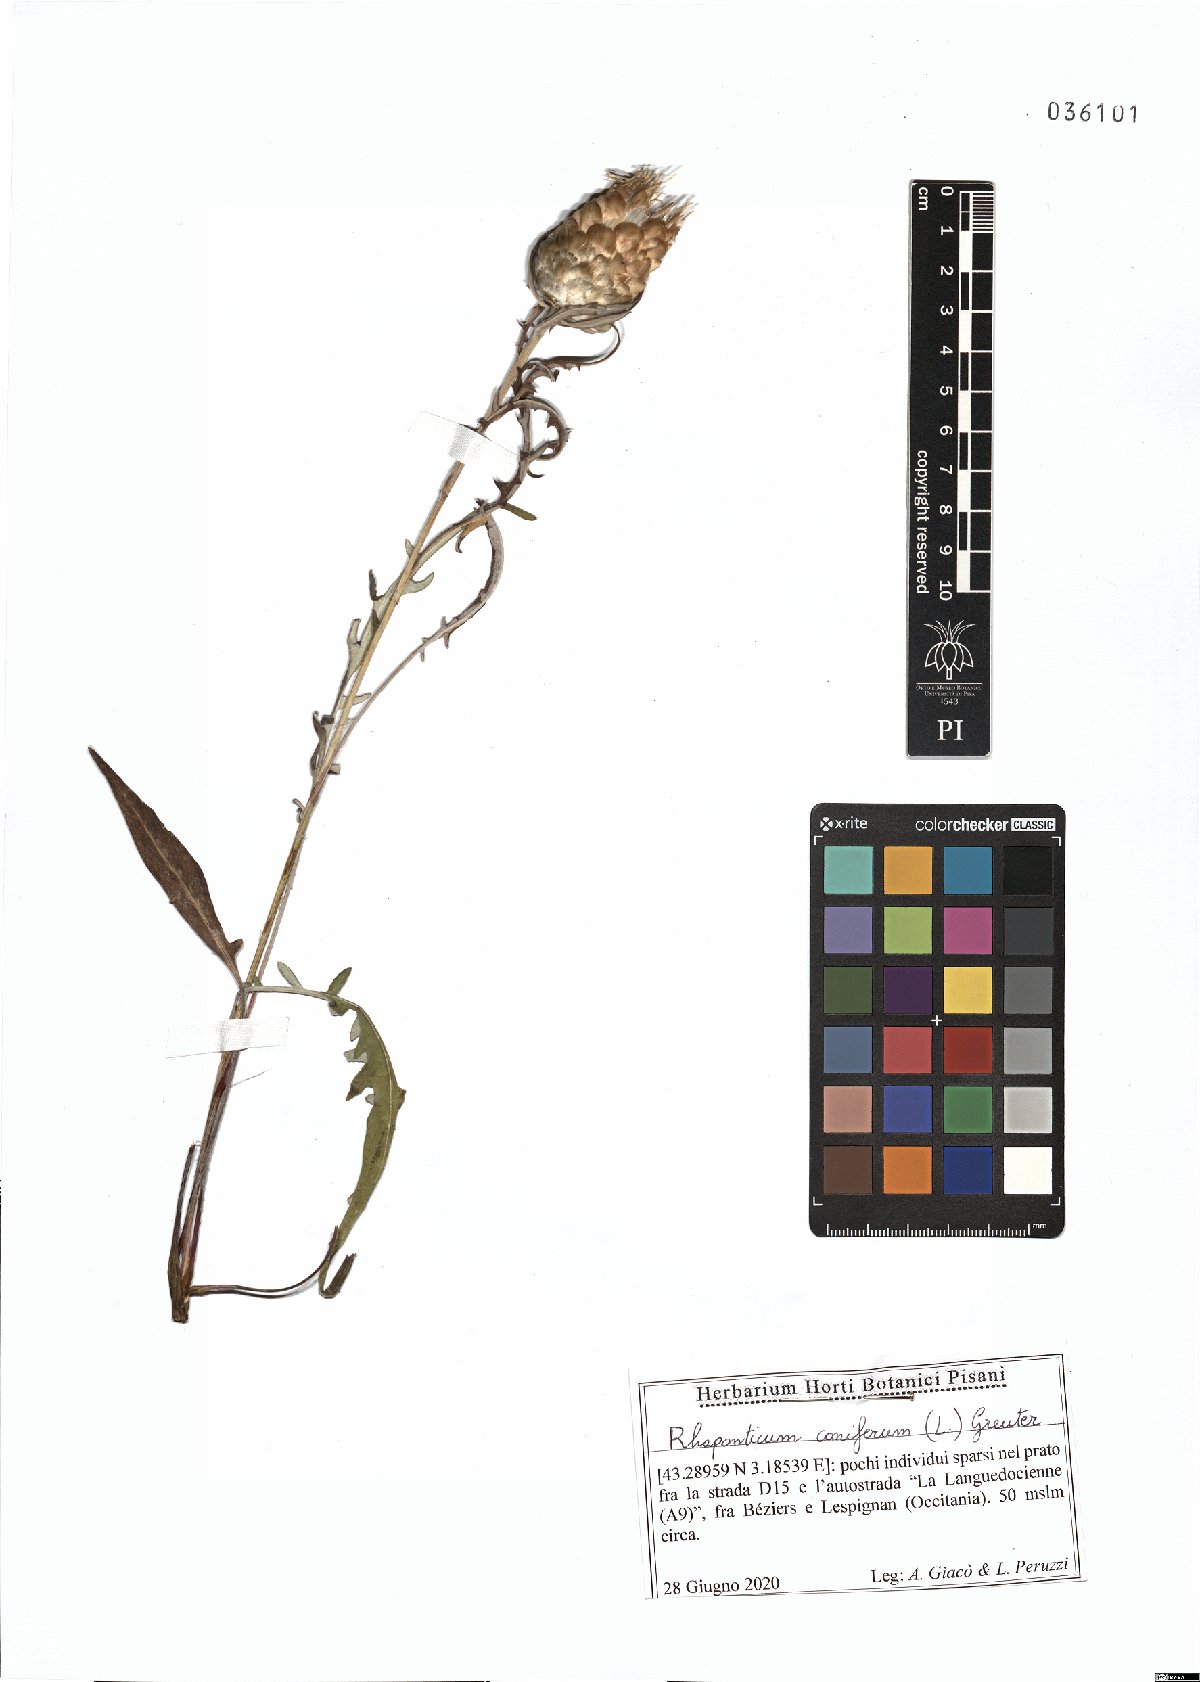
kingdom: Plantae
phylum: Tracheophyta
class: Magnoliopsida
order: Asterales
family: Asteraceae
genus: Leuzea
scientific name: Leuzea conifera
